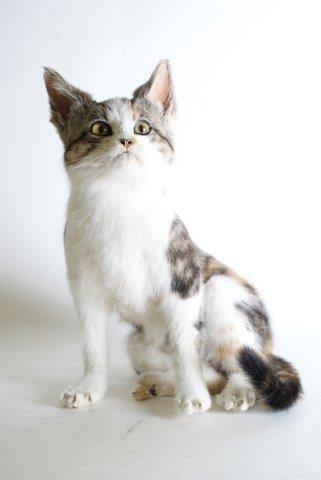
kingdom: Animalia
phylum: Chordata
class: Mammalia
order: Carnivora
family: Felidae
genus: Felis
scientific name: Felis catus
